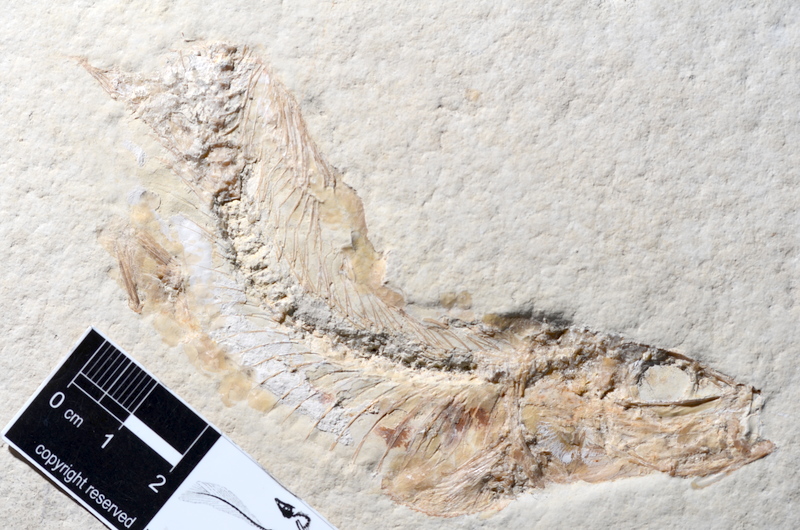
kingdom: Animalia
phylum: Chordata
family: Ascalaboidae
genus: Tharsis
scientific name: Tharsis dubius
